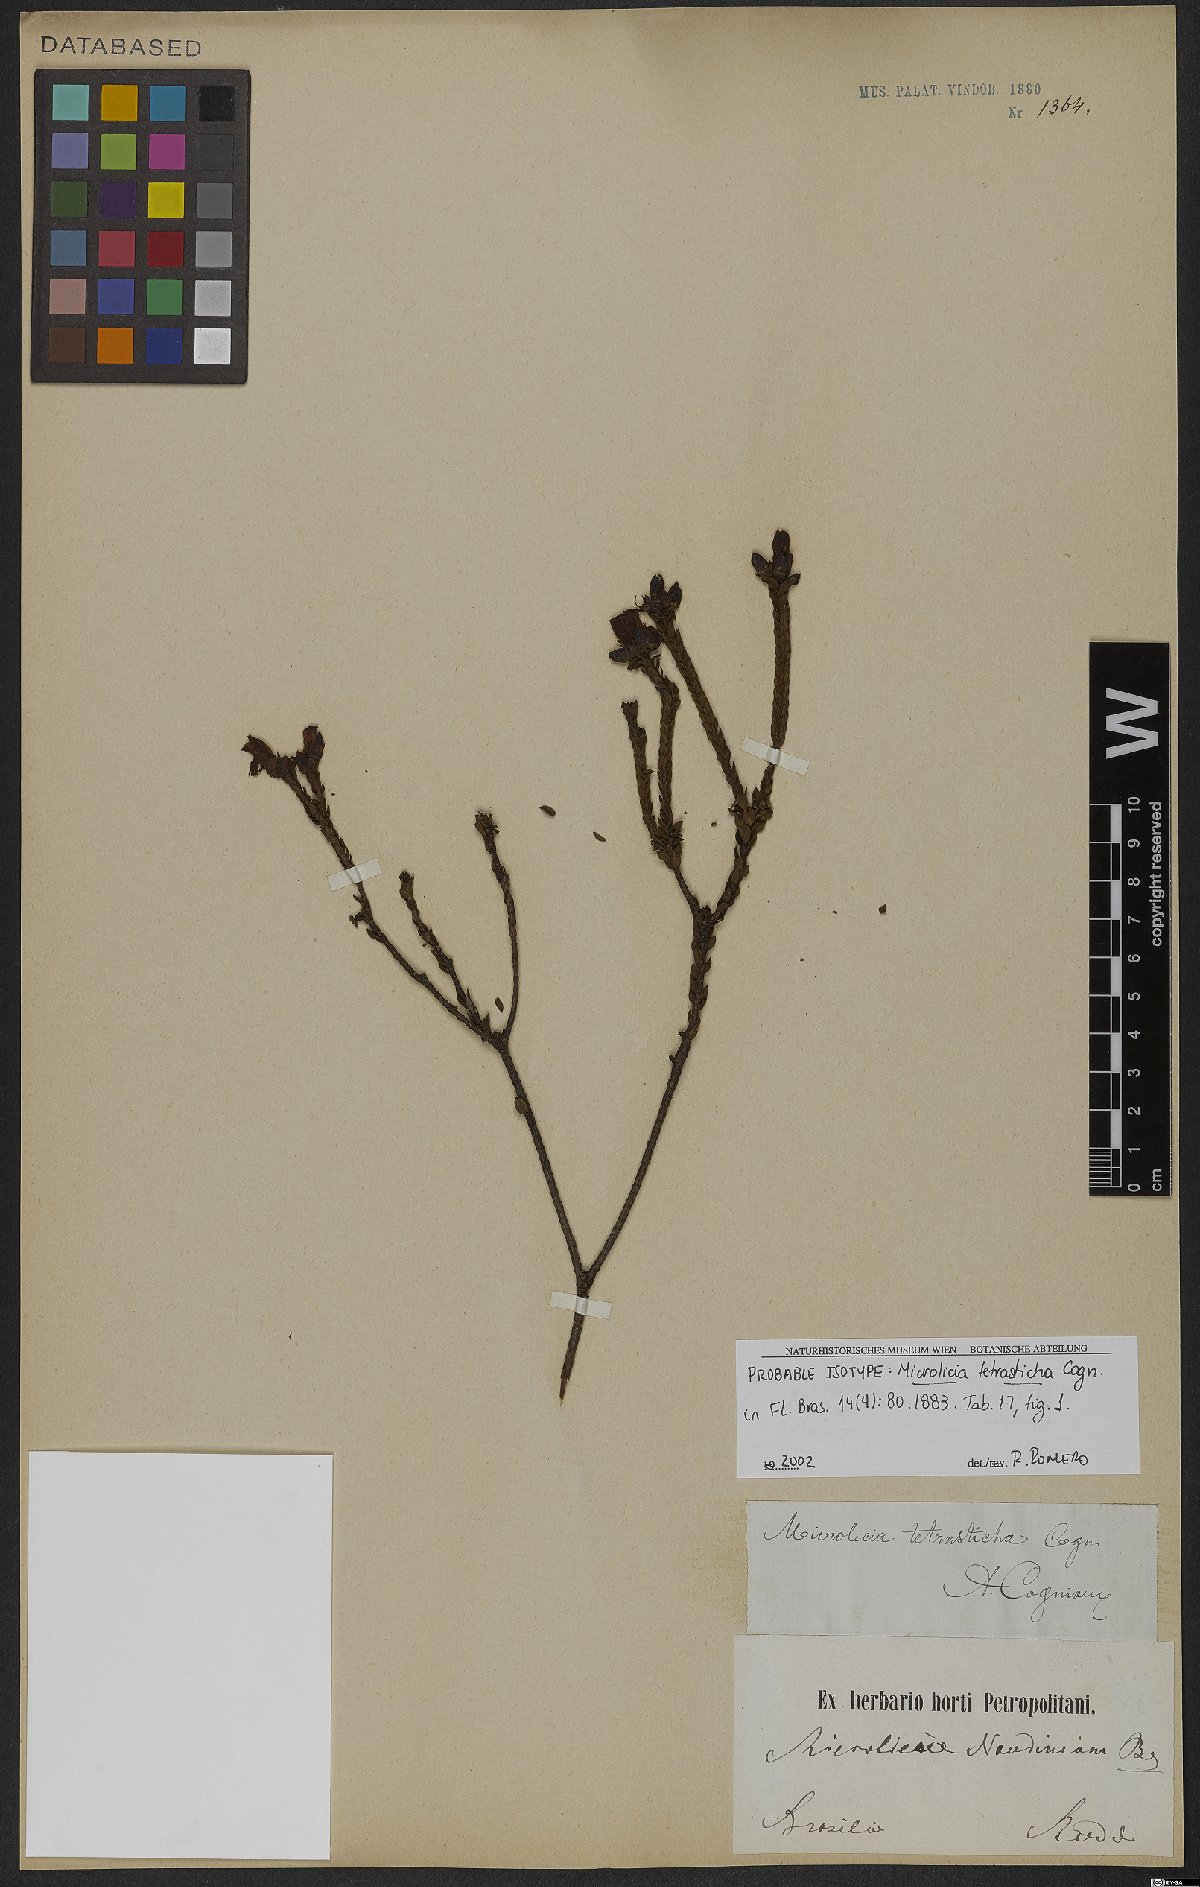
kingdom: Plantae
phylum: Tracheophyta
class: Magnoliopsida
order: Myrtales
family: Melastomataceae
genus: Microlicia
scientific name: Microlicia tetrasticha
